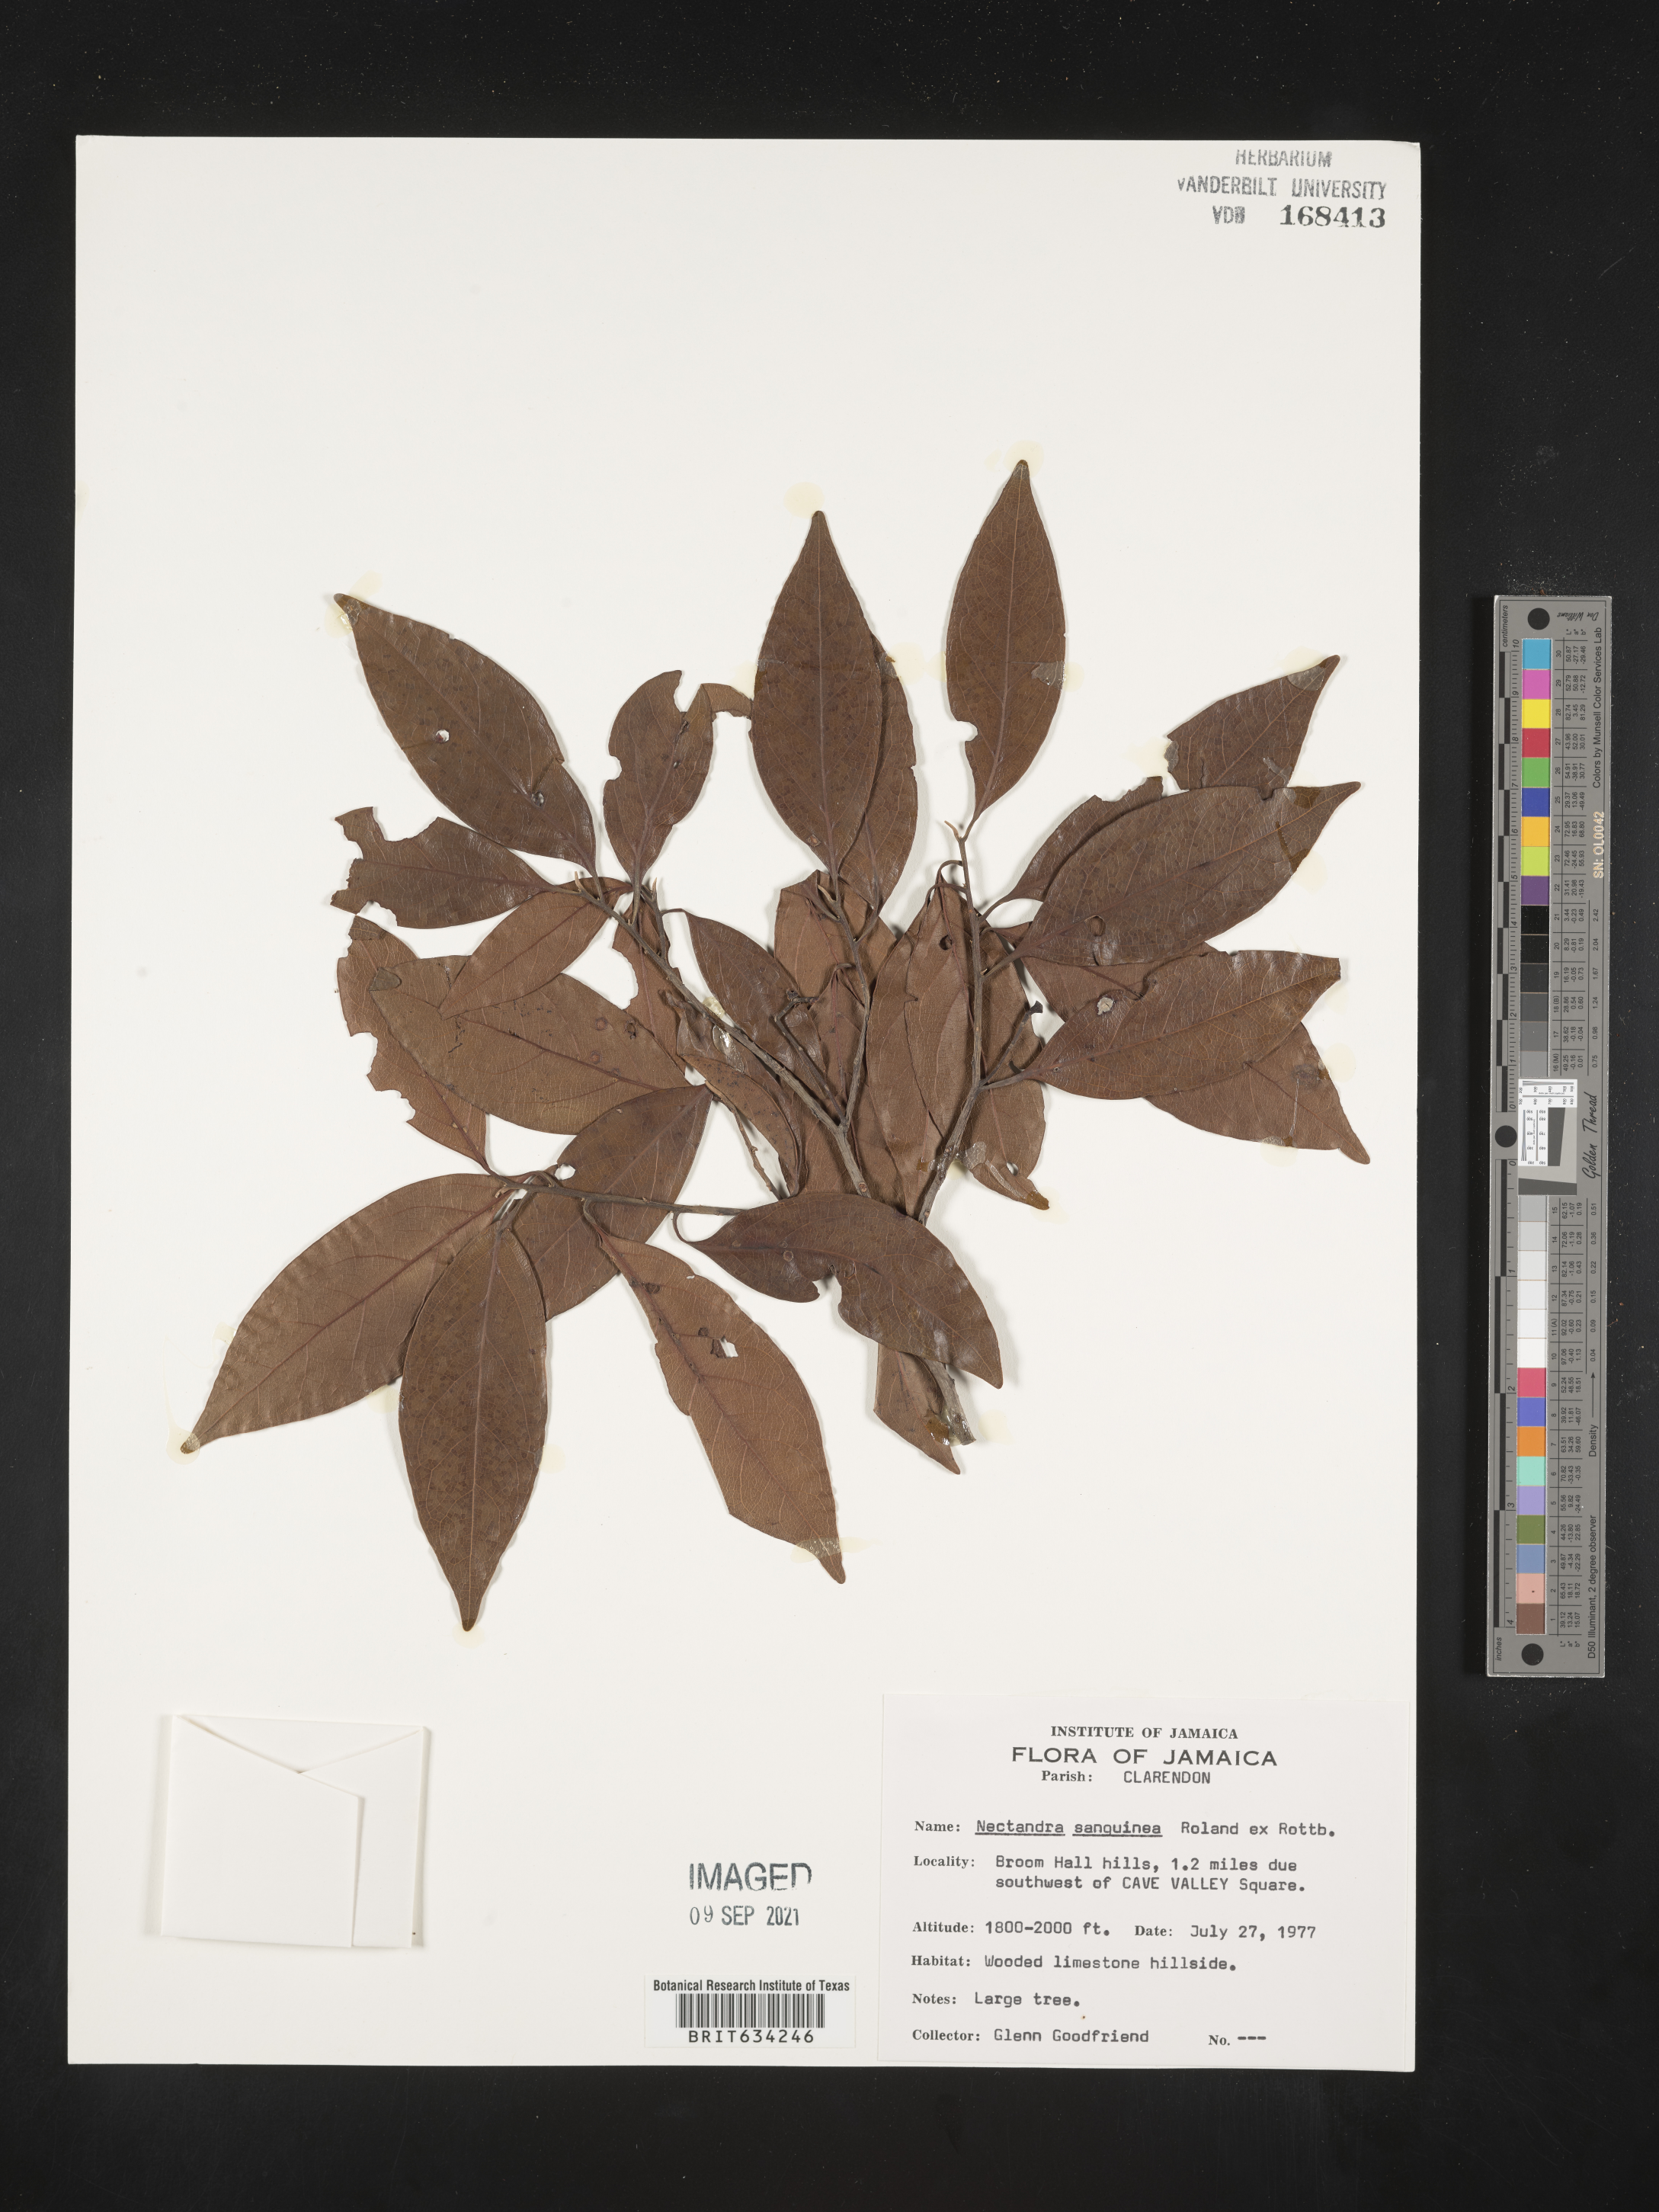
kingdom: Plantae
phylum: Tracheophyta
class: Magnoliopsida
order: Laurales
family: Lauraceae
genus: Nectandra
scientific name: Nectandra
